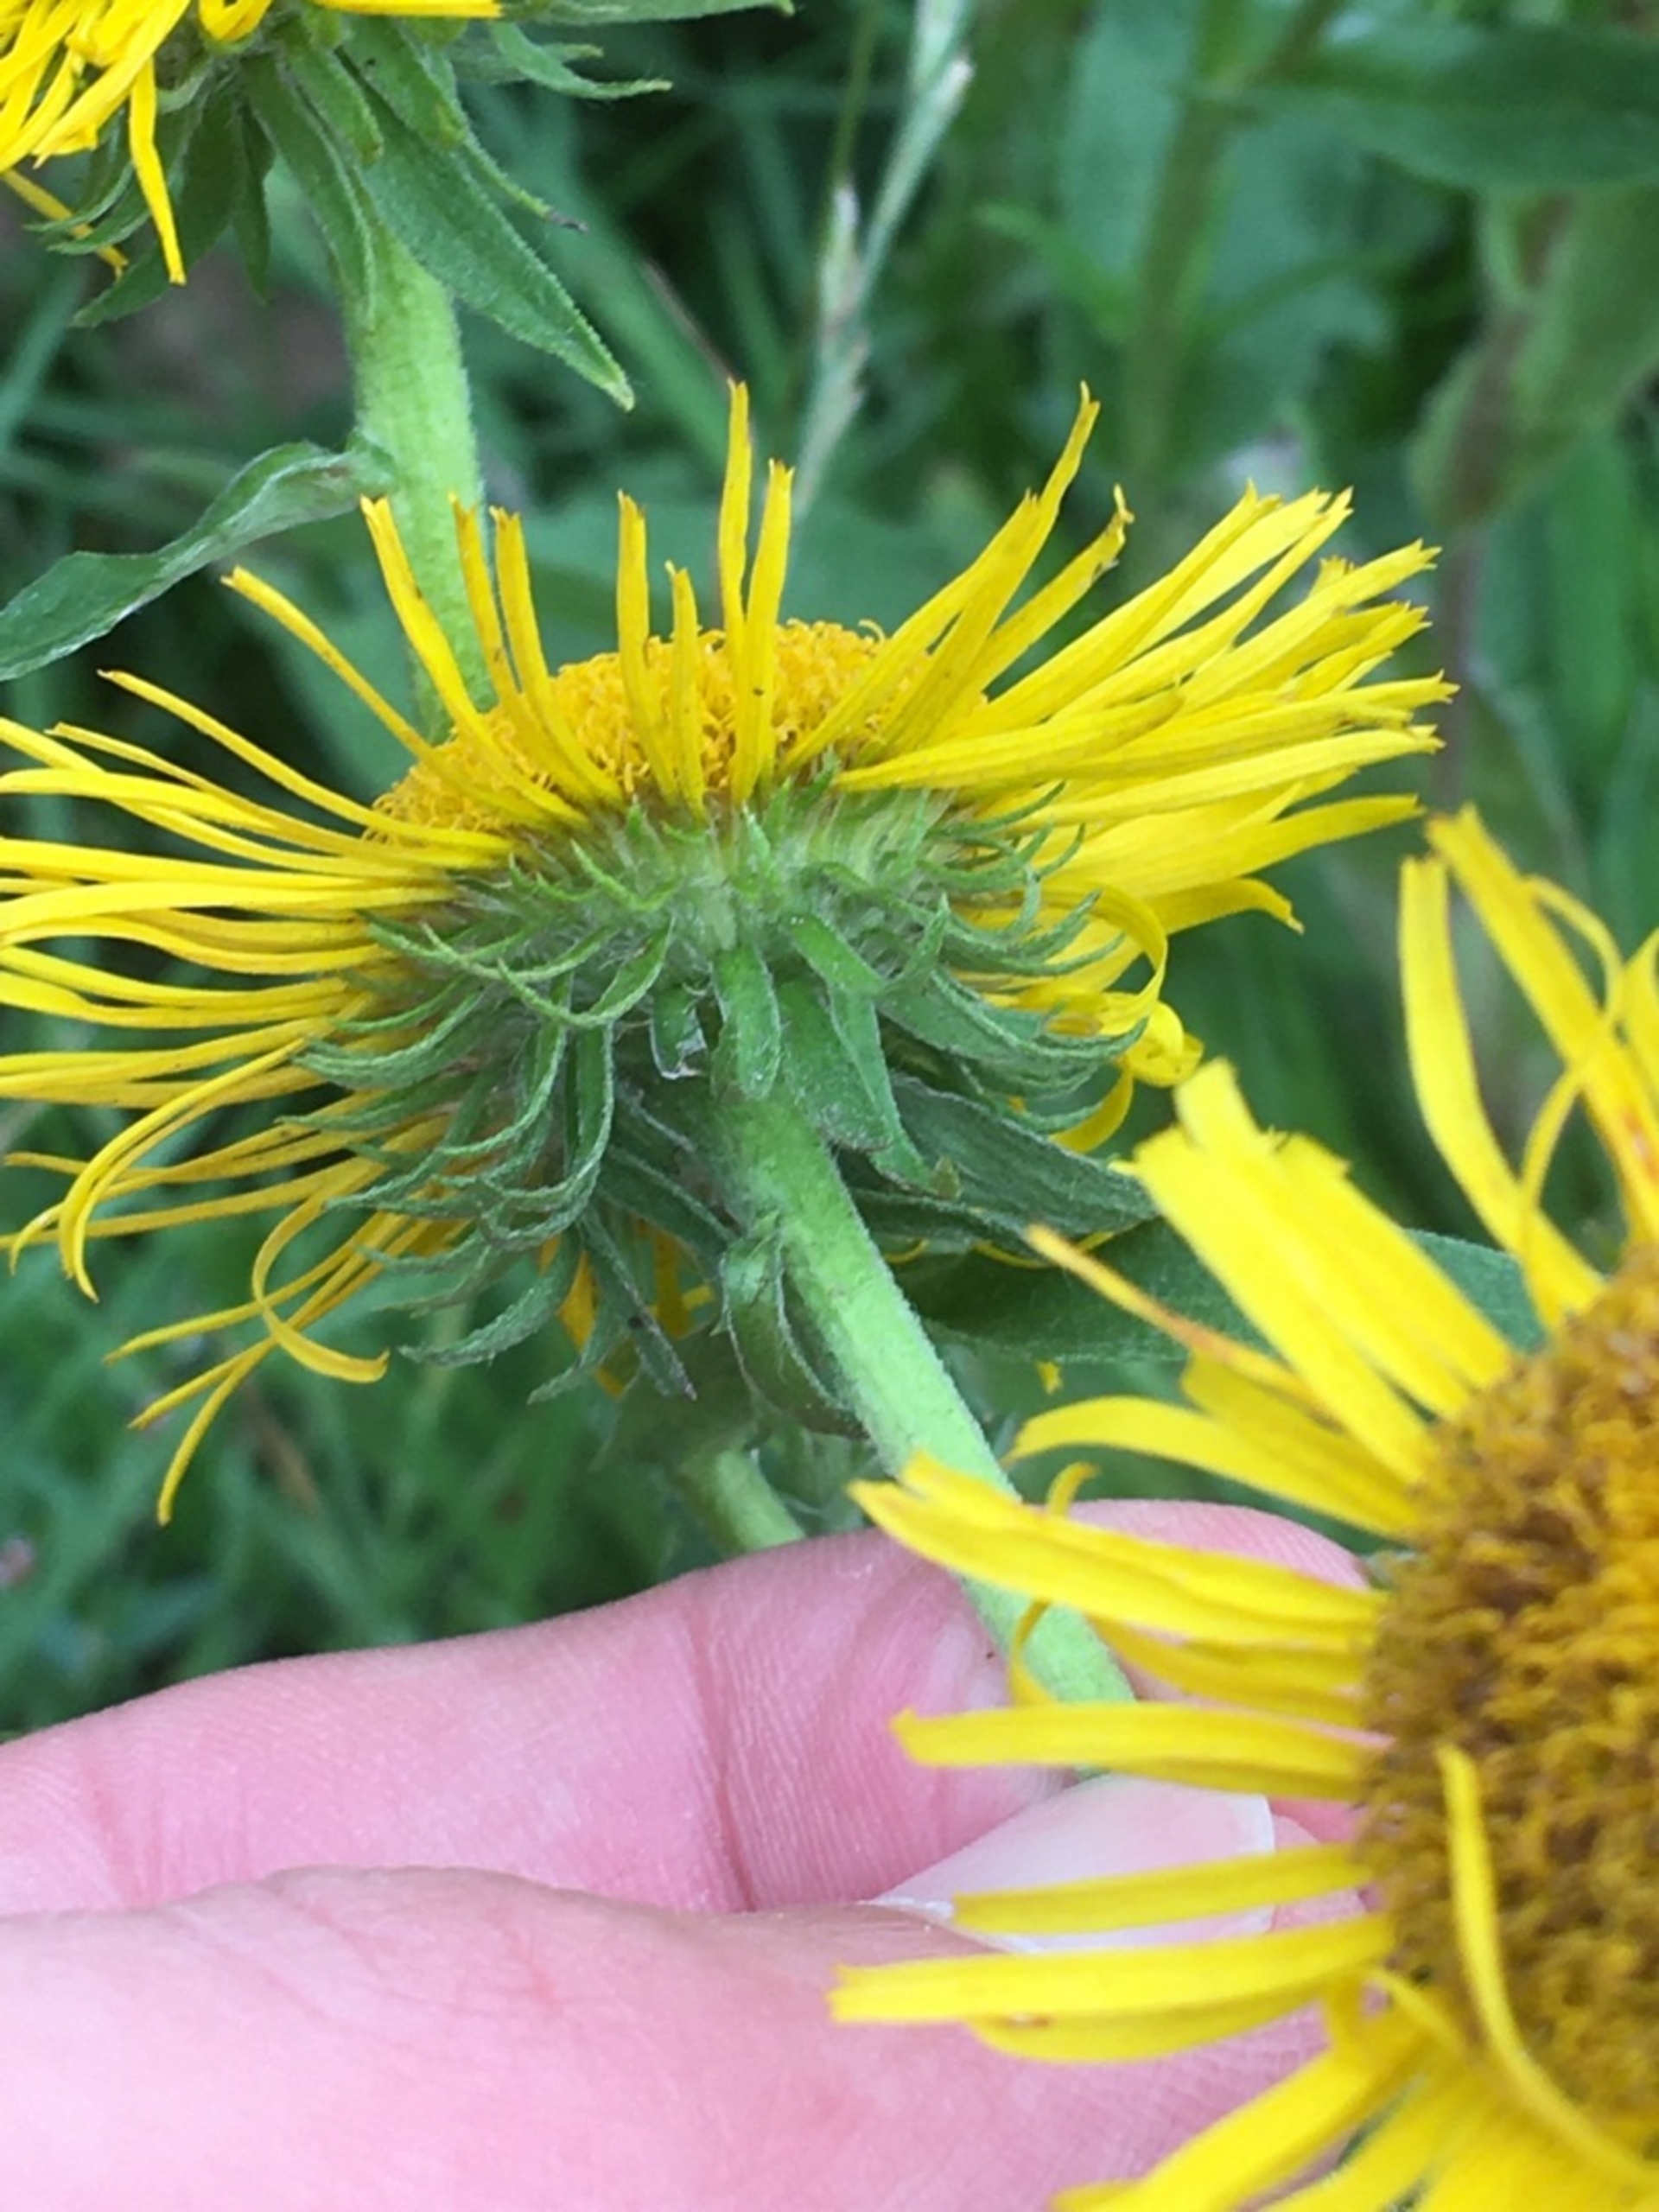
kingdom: Plantae
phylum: Tracheophyta
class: Magnoliopsida
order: Asterales
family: Asteraceae
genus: Pentanema
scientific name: Pentanema britannicum
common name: Soløje-alant
